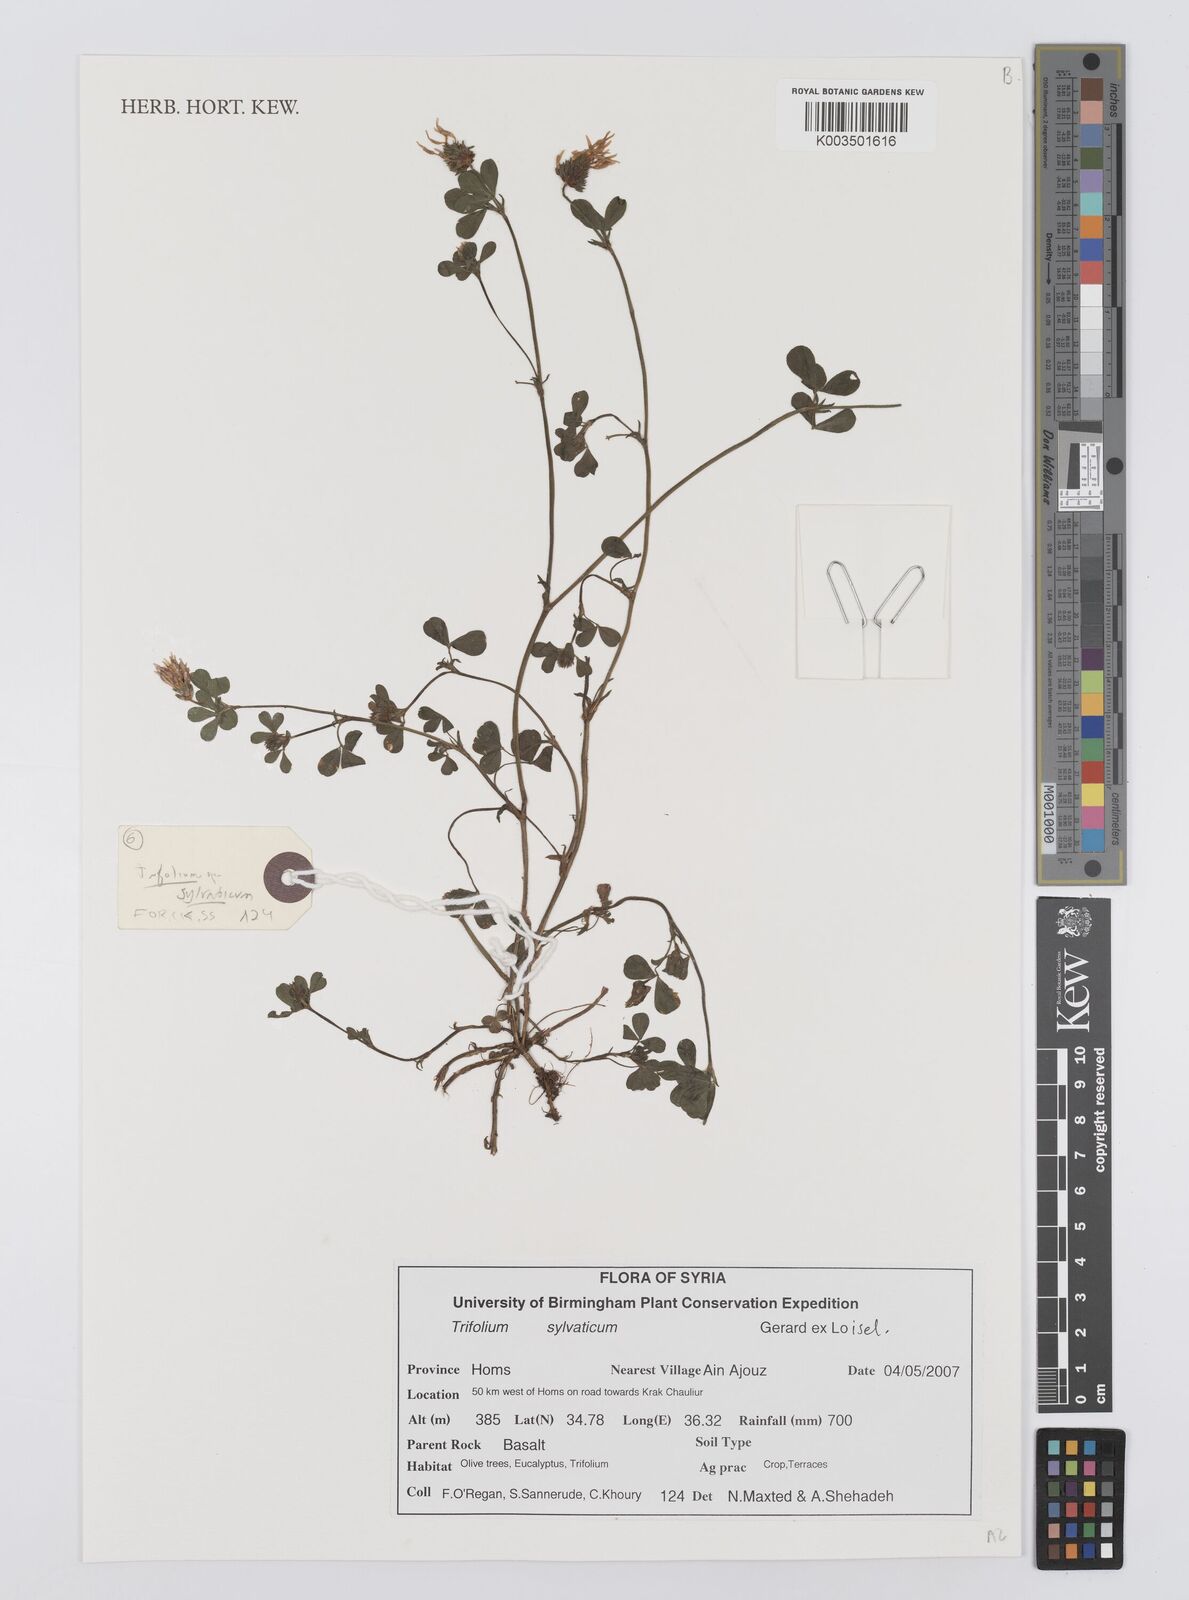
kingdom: Plantae
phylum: Tracheophyta
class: Magnoliopsida
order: Fabales
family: Fabaceae
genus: Trifolium
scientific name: Trifolium sylvaticum
